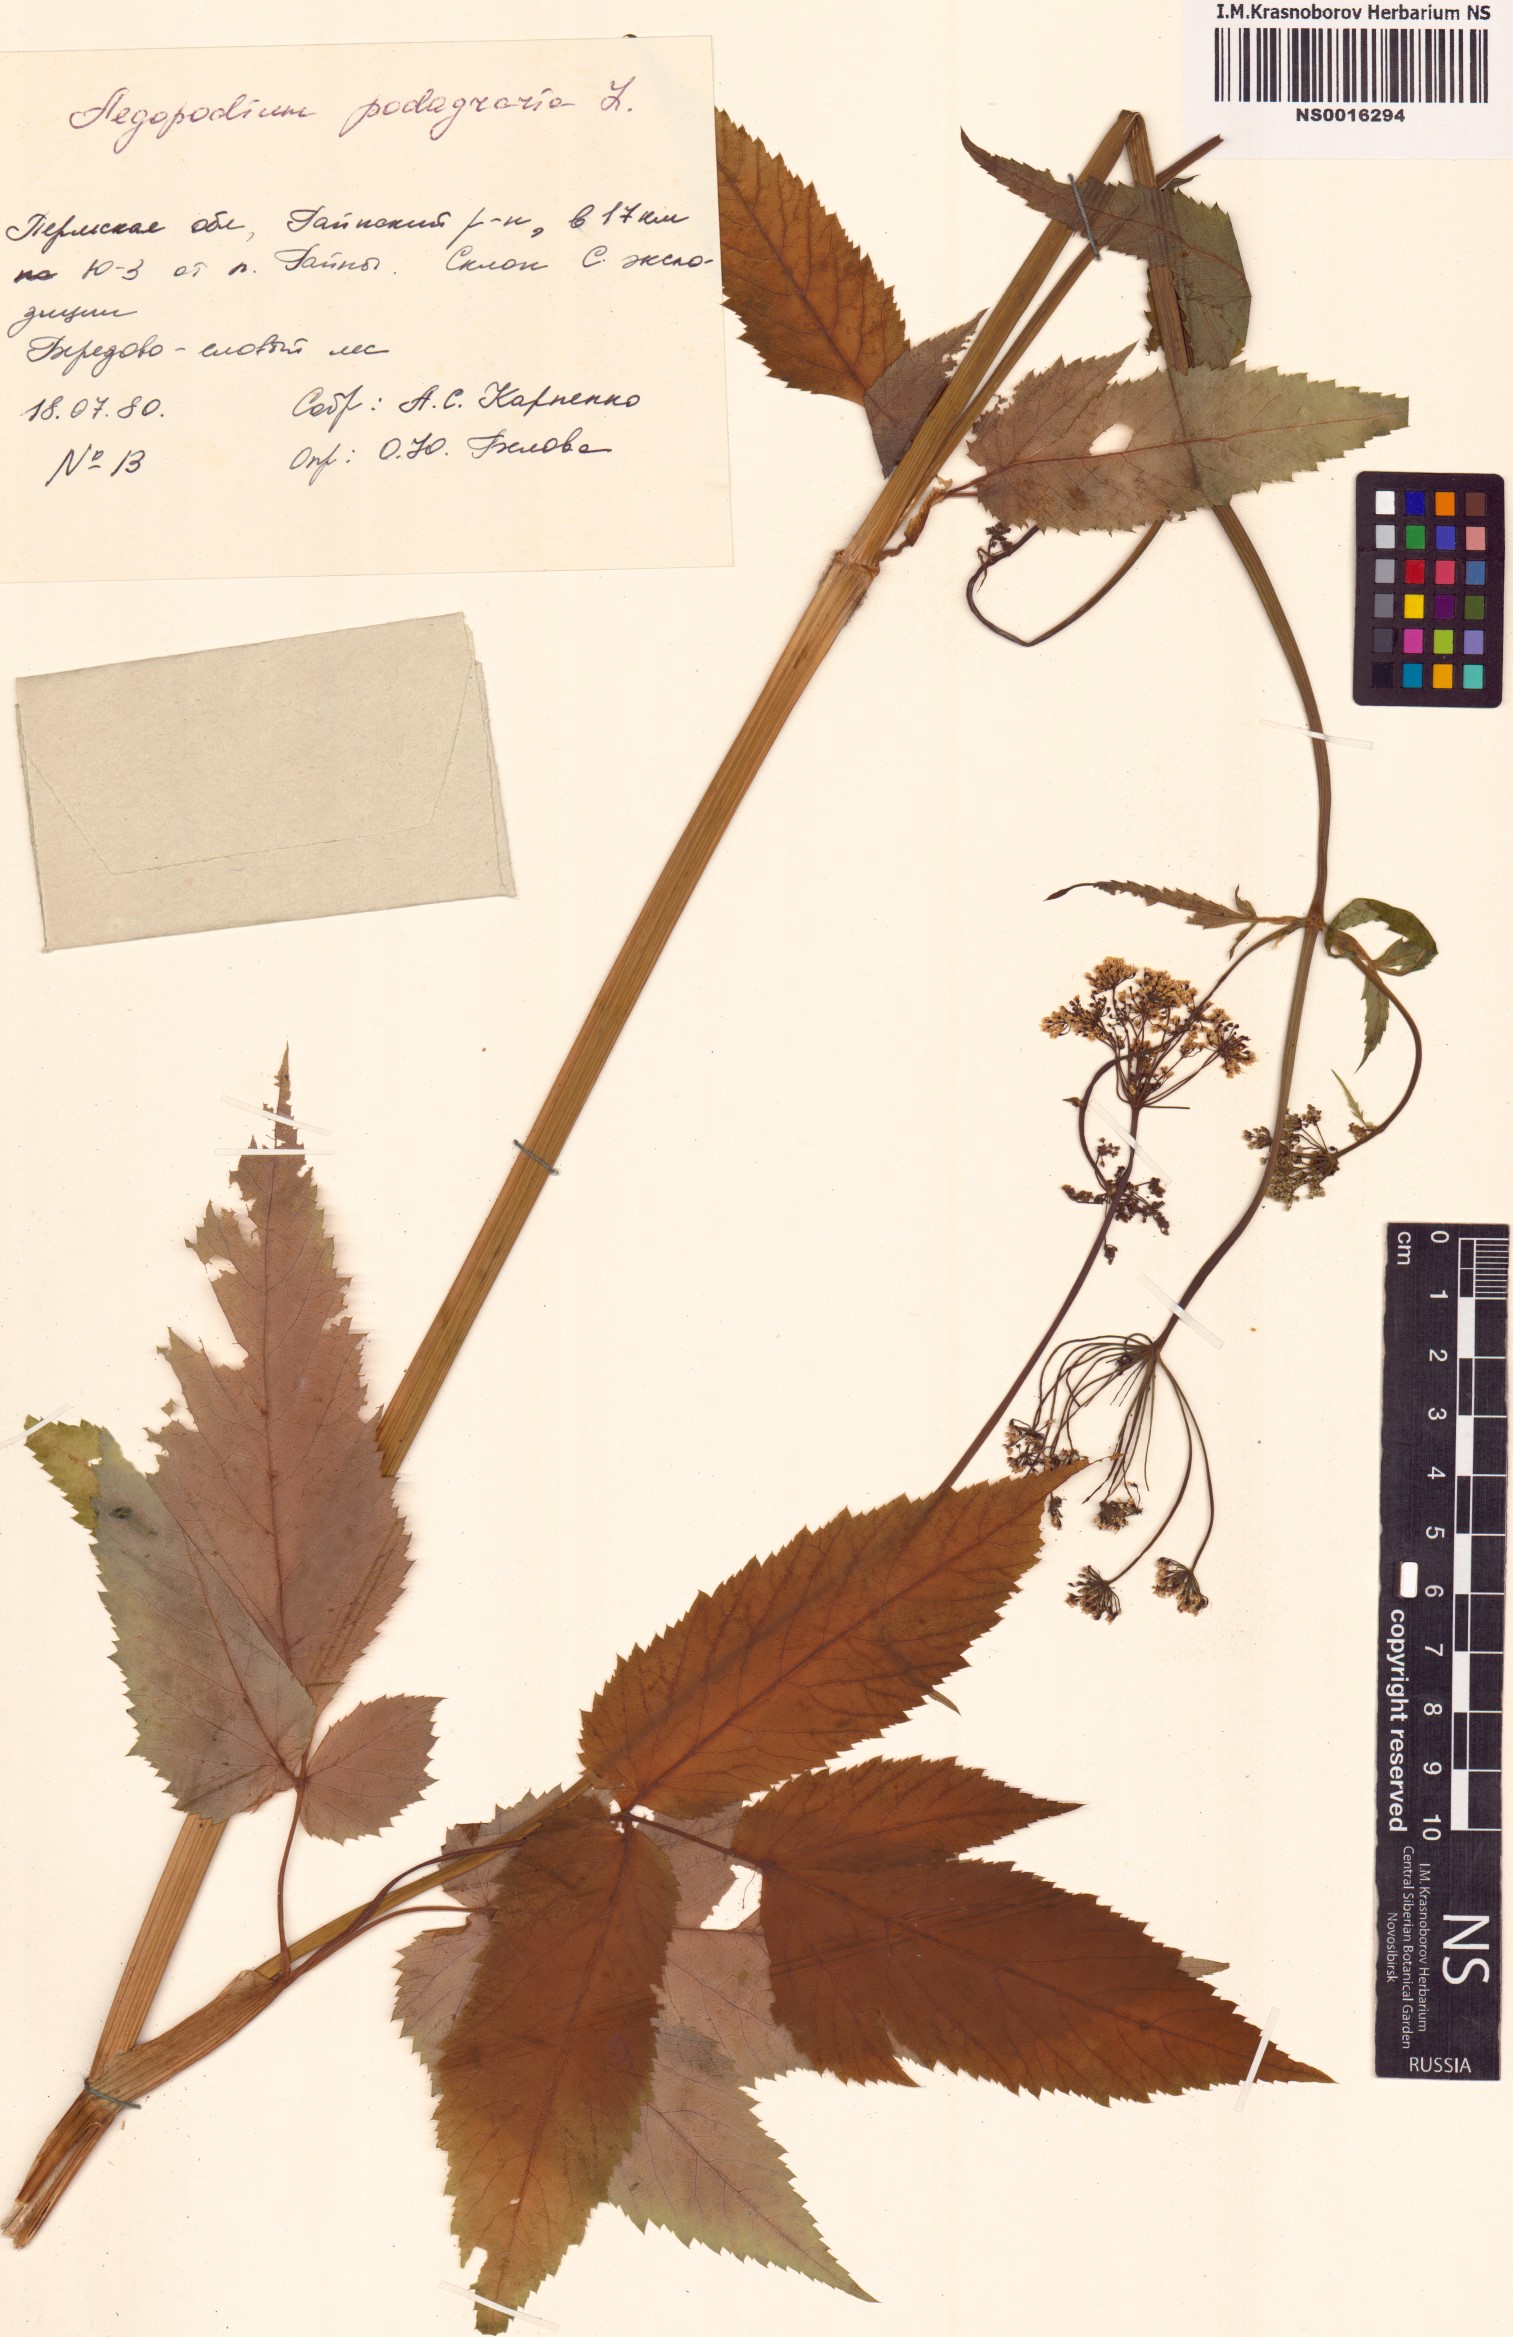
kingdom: Plantae
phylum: Tracheophyta
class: Magnoliopsida
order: Apiales
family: Apiaceae
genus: Aegopodium
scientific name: Aegopodium podagraria
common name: Ground-elder
